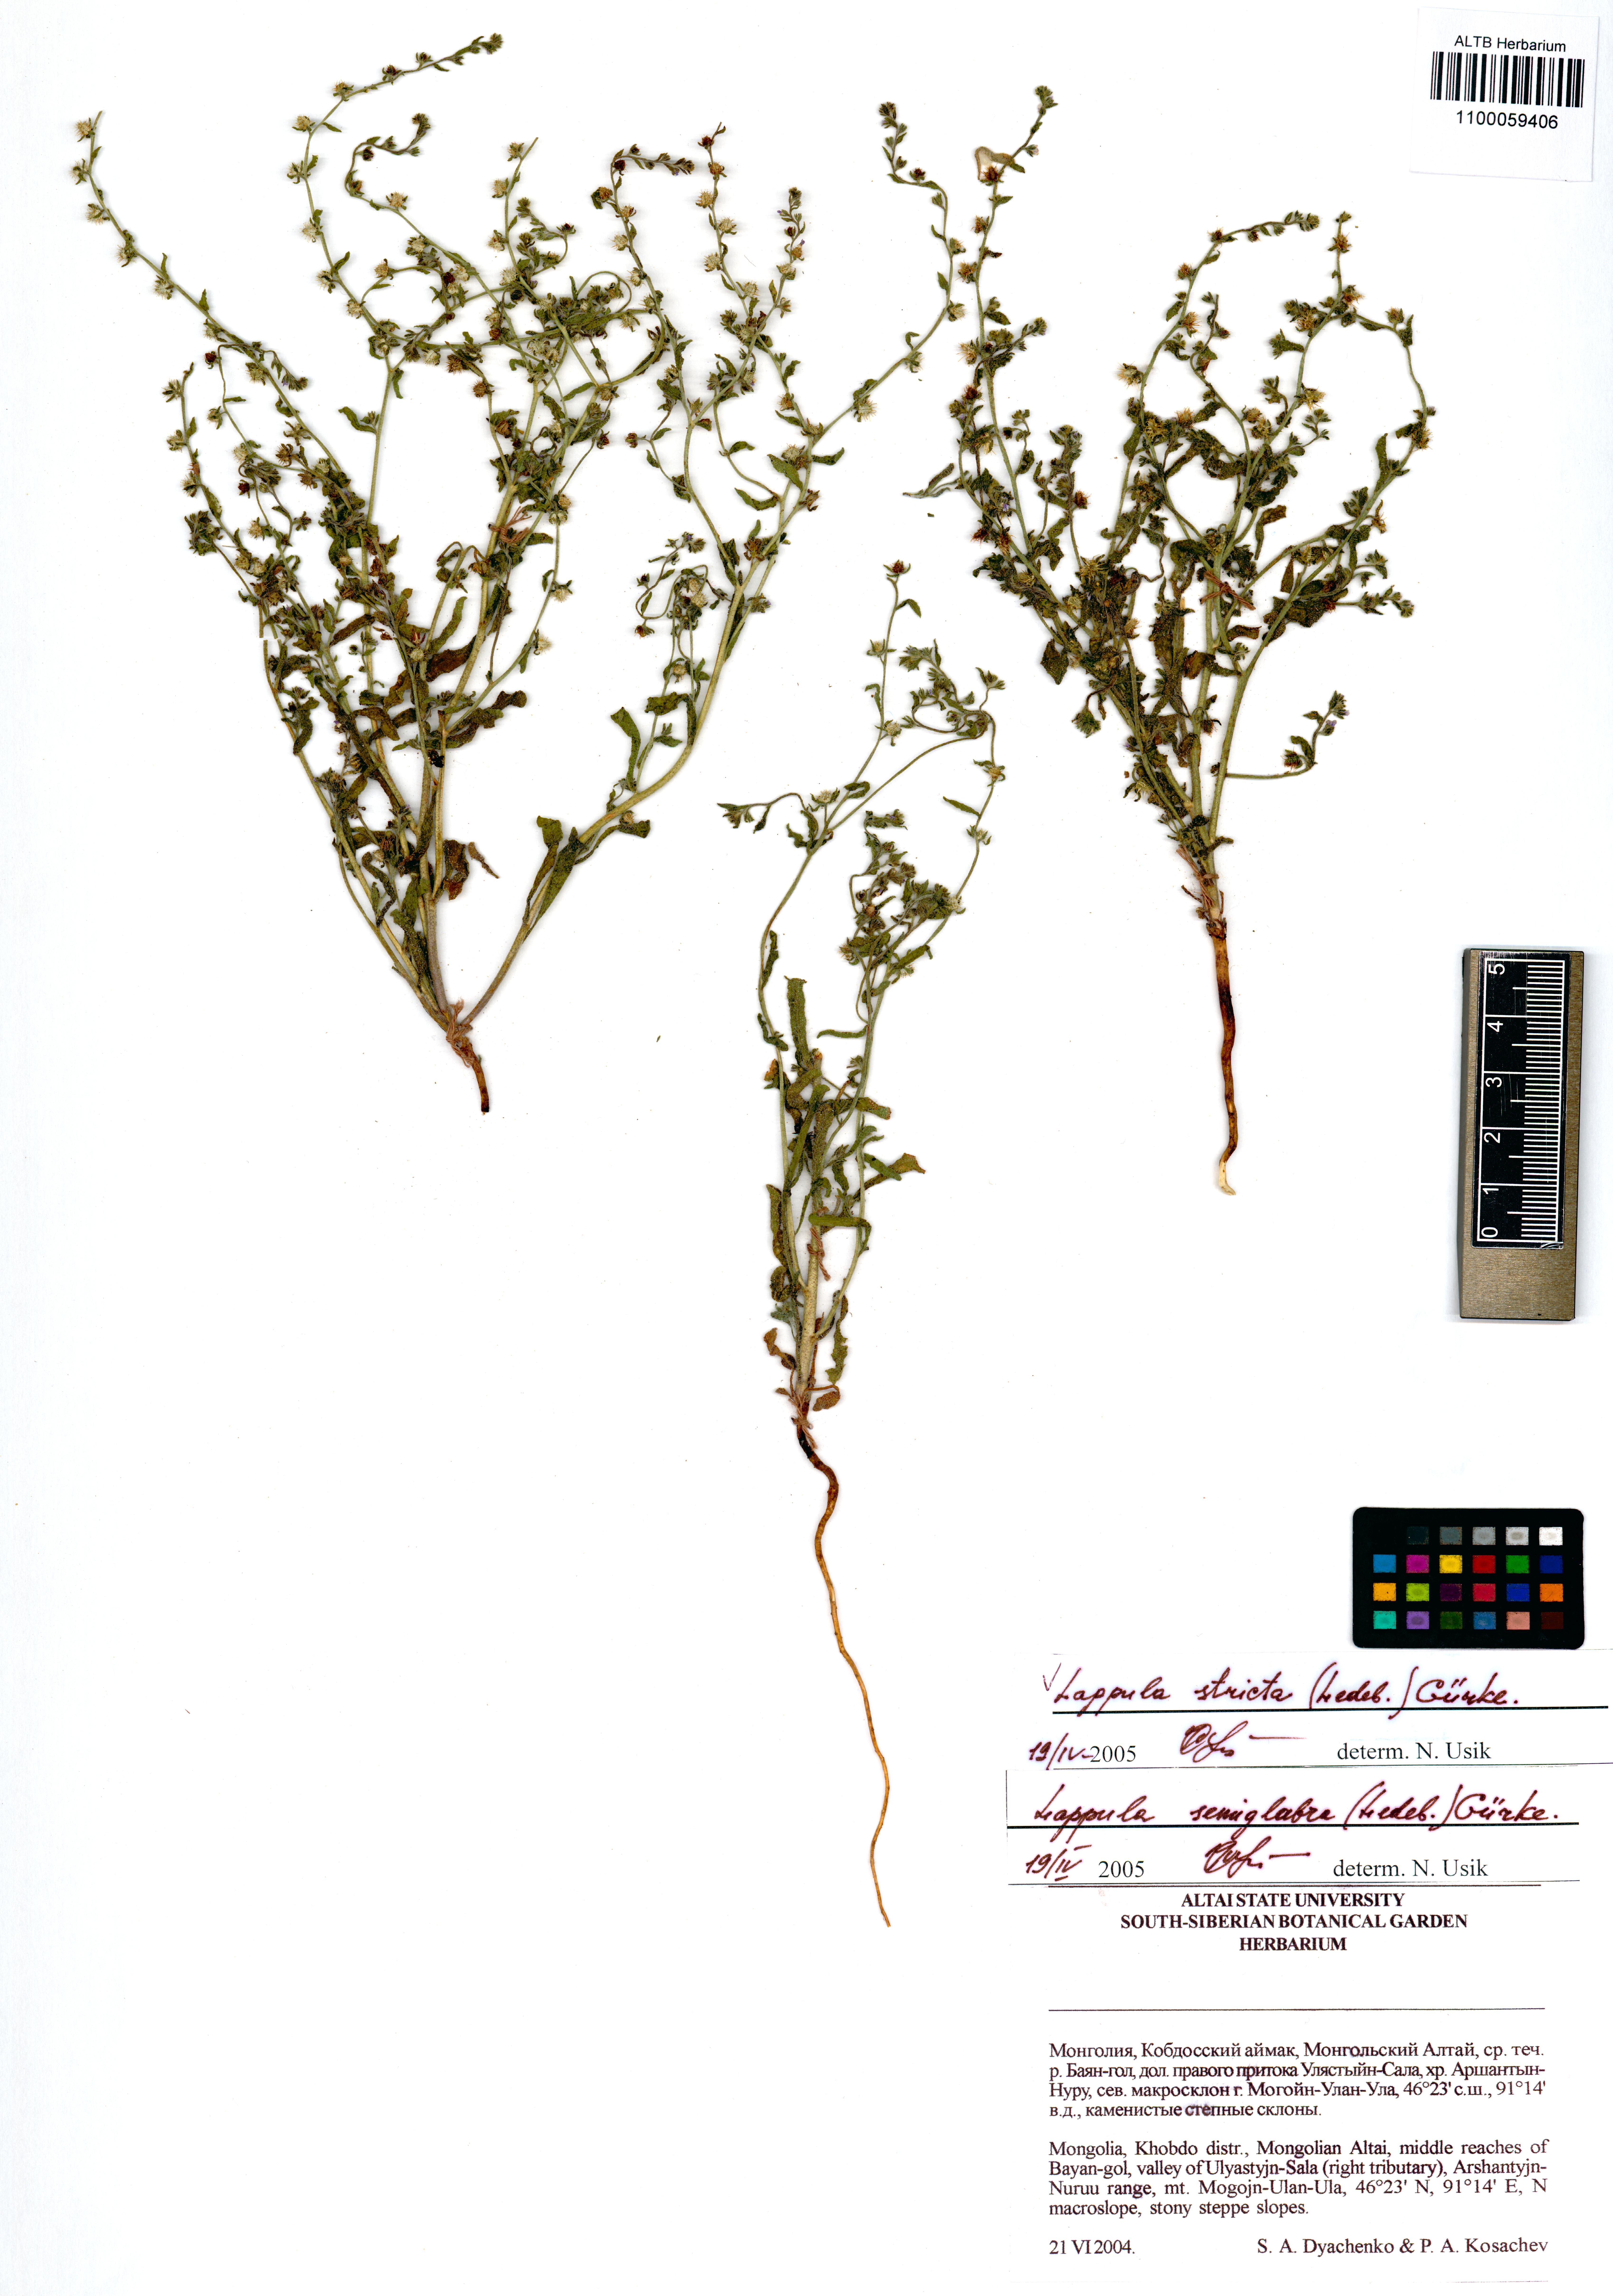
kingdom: Plantae
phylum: Tracheophyta
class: Magnoliopsida
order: Boraginales
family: Boraginaceae
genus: Lappula
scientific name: Lappula stricta
